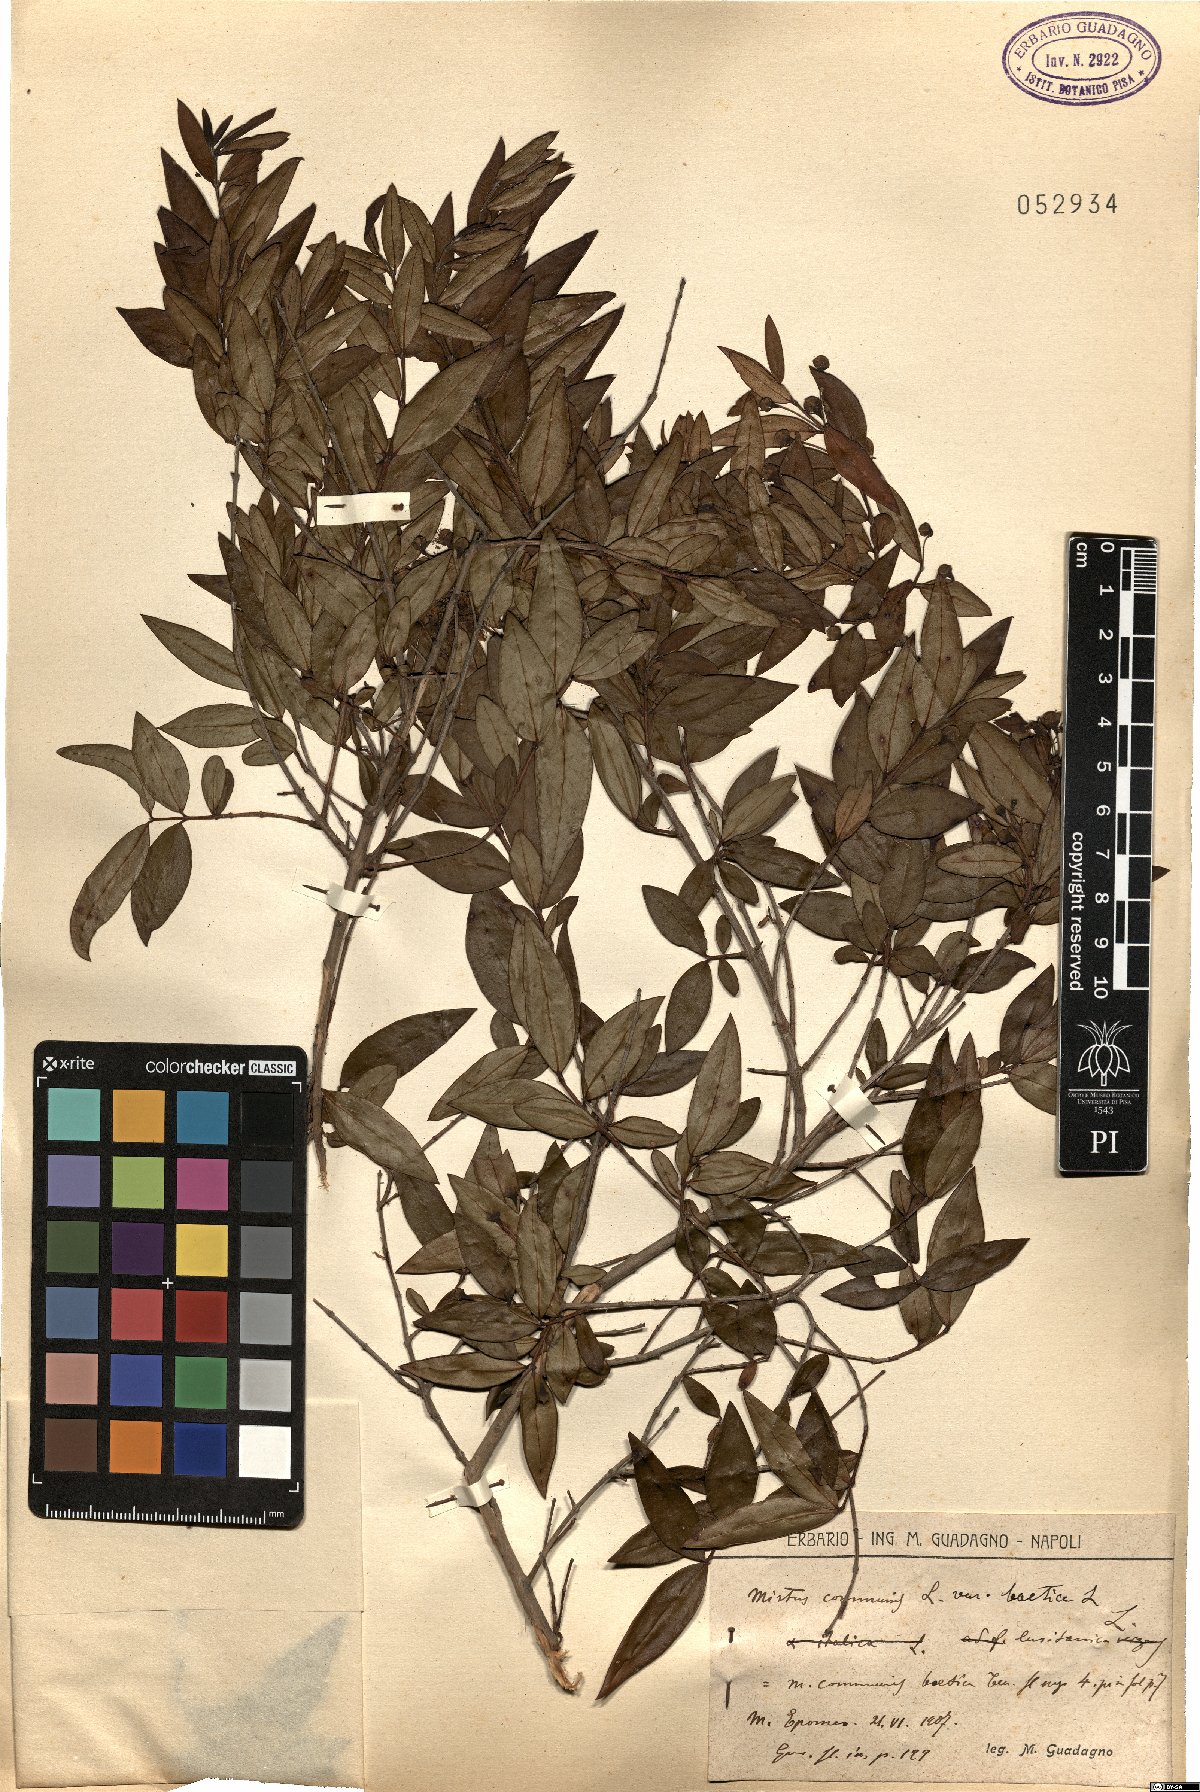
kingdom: Plantae
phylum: Tracheophyta
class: Magnoliopsida
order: Myrtales
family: Myrtaceae
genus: Myrtus
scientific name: Myrtus communis
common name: Myrtle
